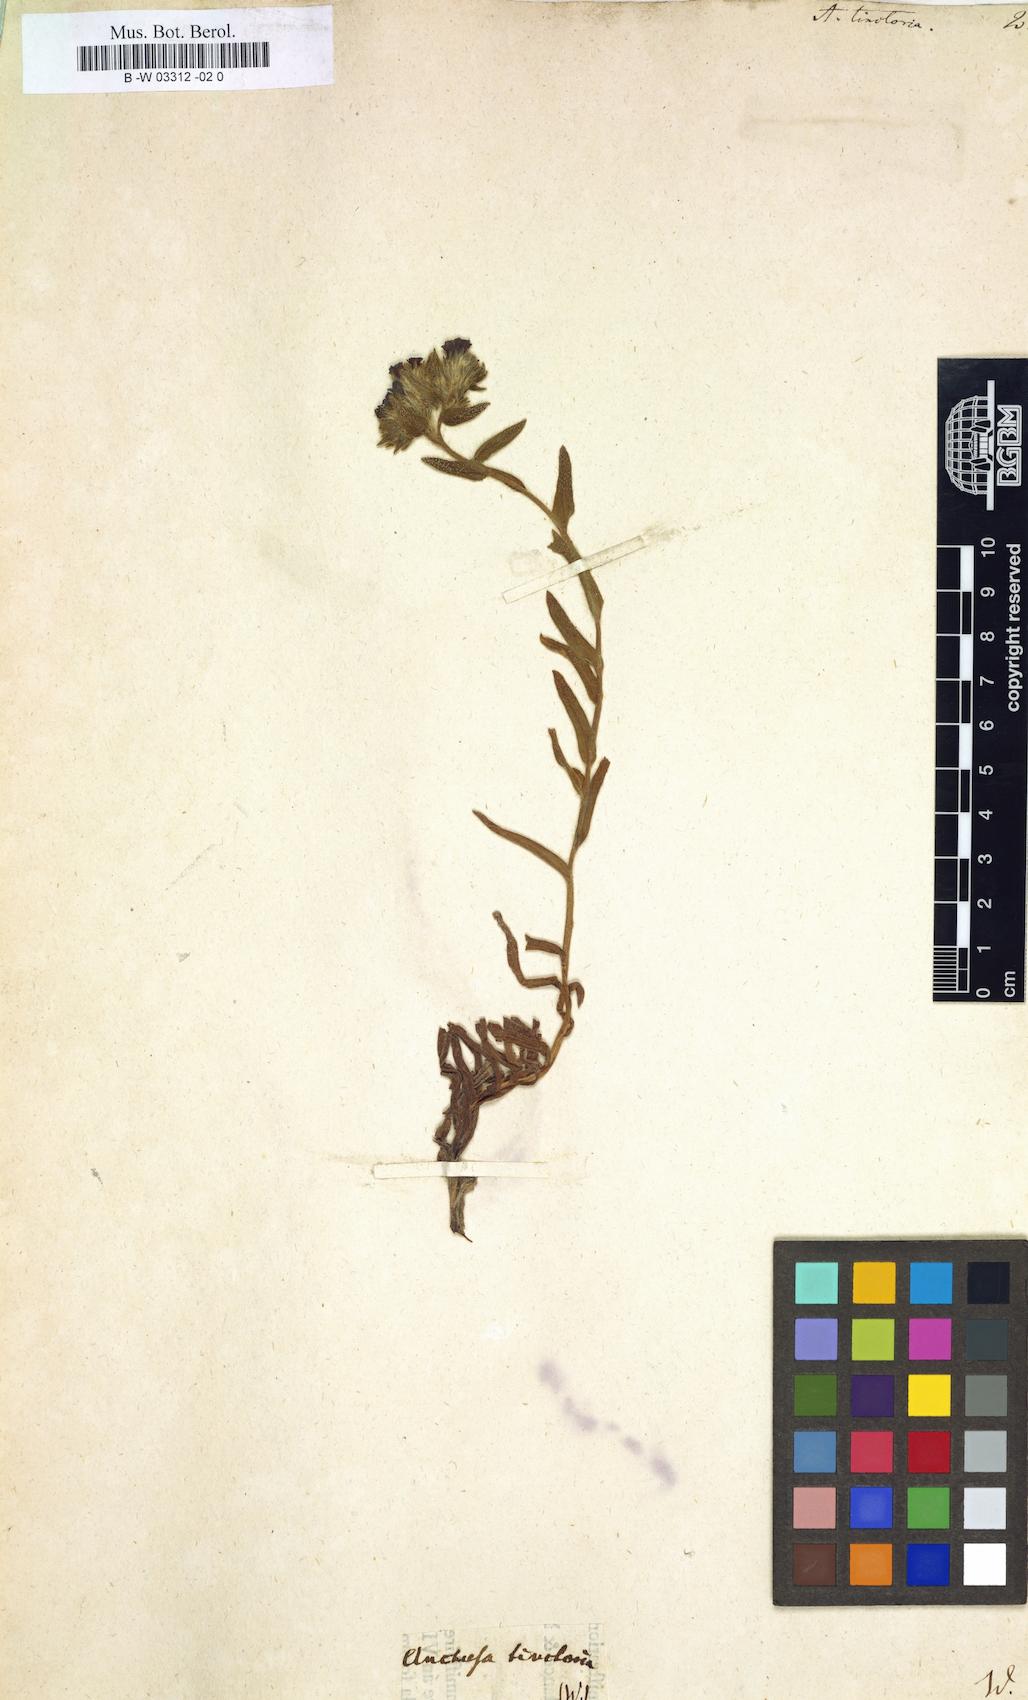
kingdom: Plantae
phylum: Tracheophyta
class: Magnoliopsida
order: Boraginales
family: Boraginaceae
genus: Alkanna
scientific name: Alkanna tinctoria
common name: Dyer's-alkanet
